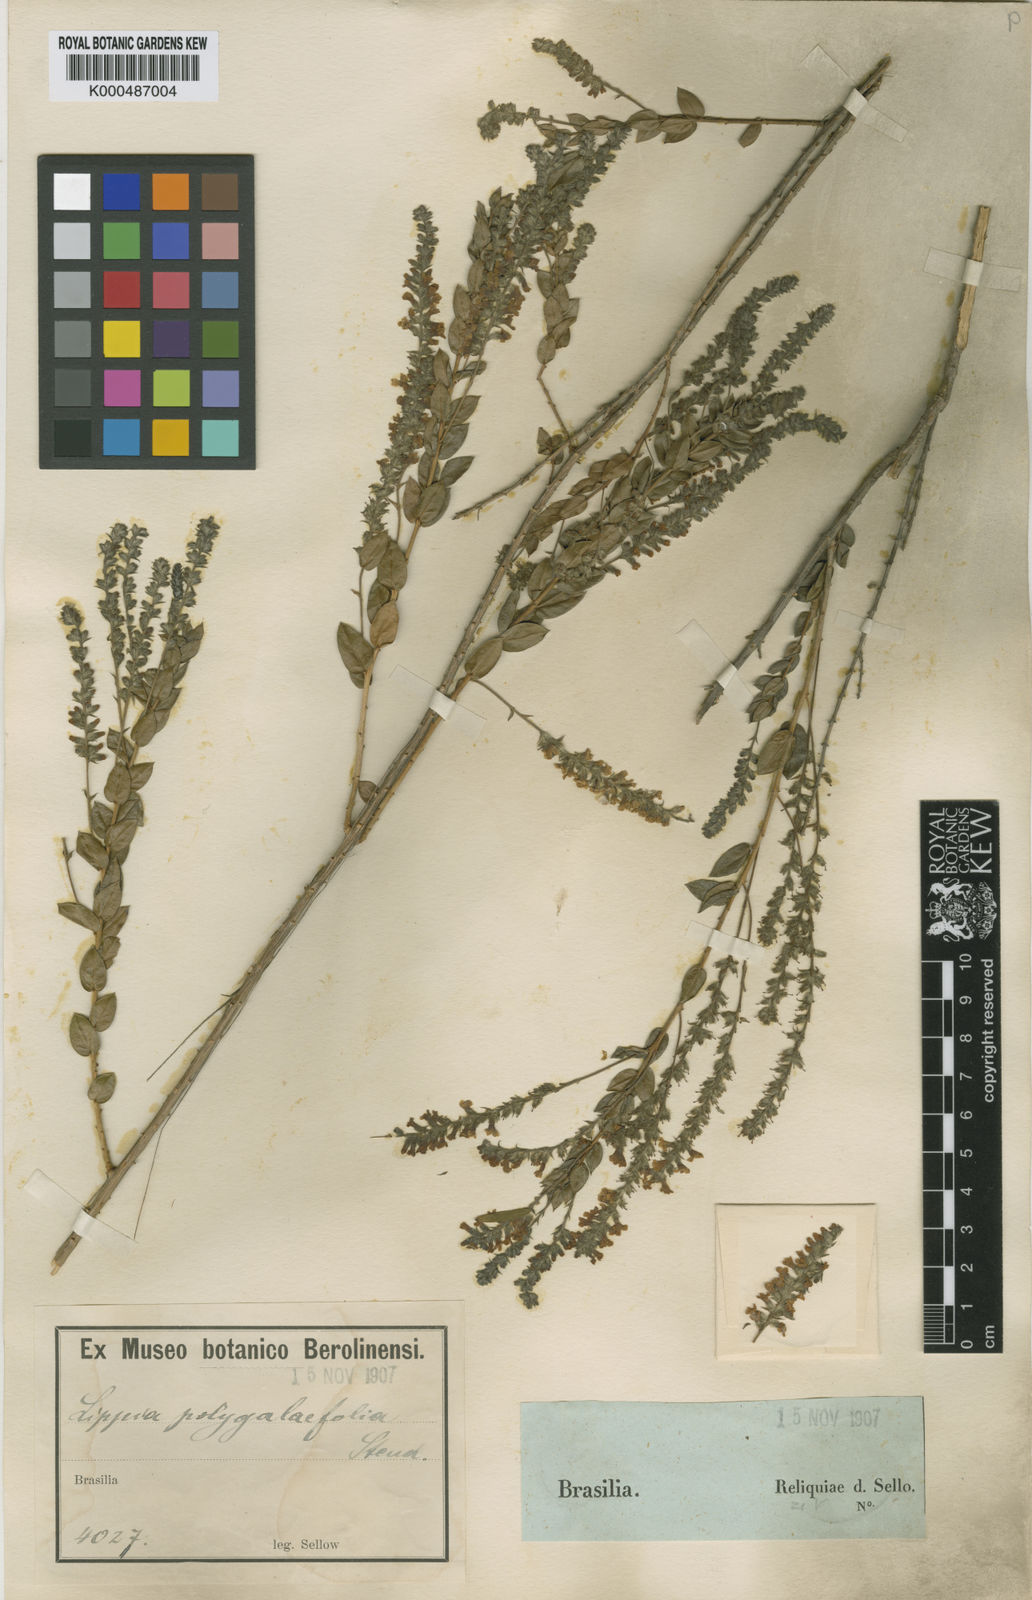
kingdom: Plantae
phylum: Tracheophyta
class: Magnoliopsida
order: Lamiales
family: Verbenaceae
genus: Aloysia
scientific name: Aloysia polygalifolia
